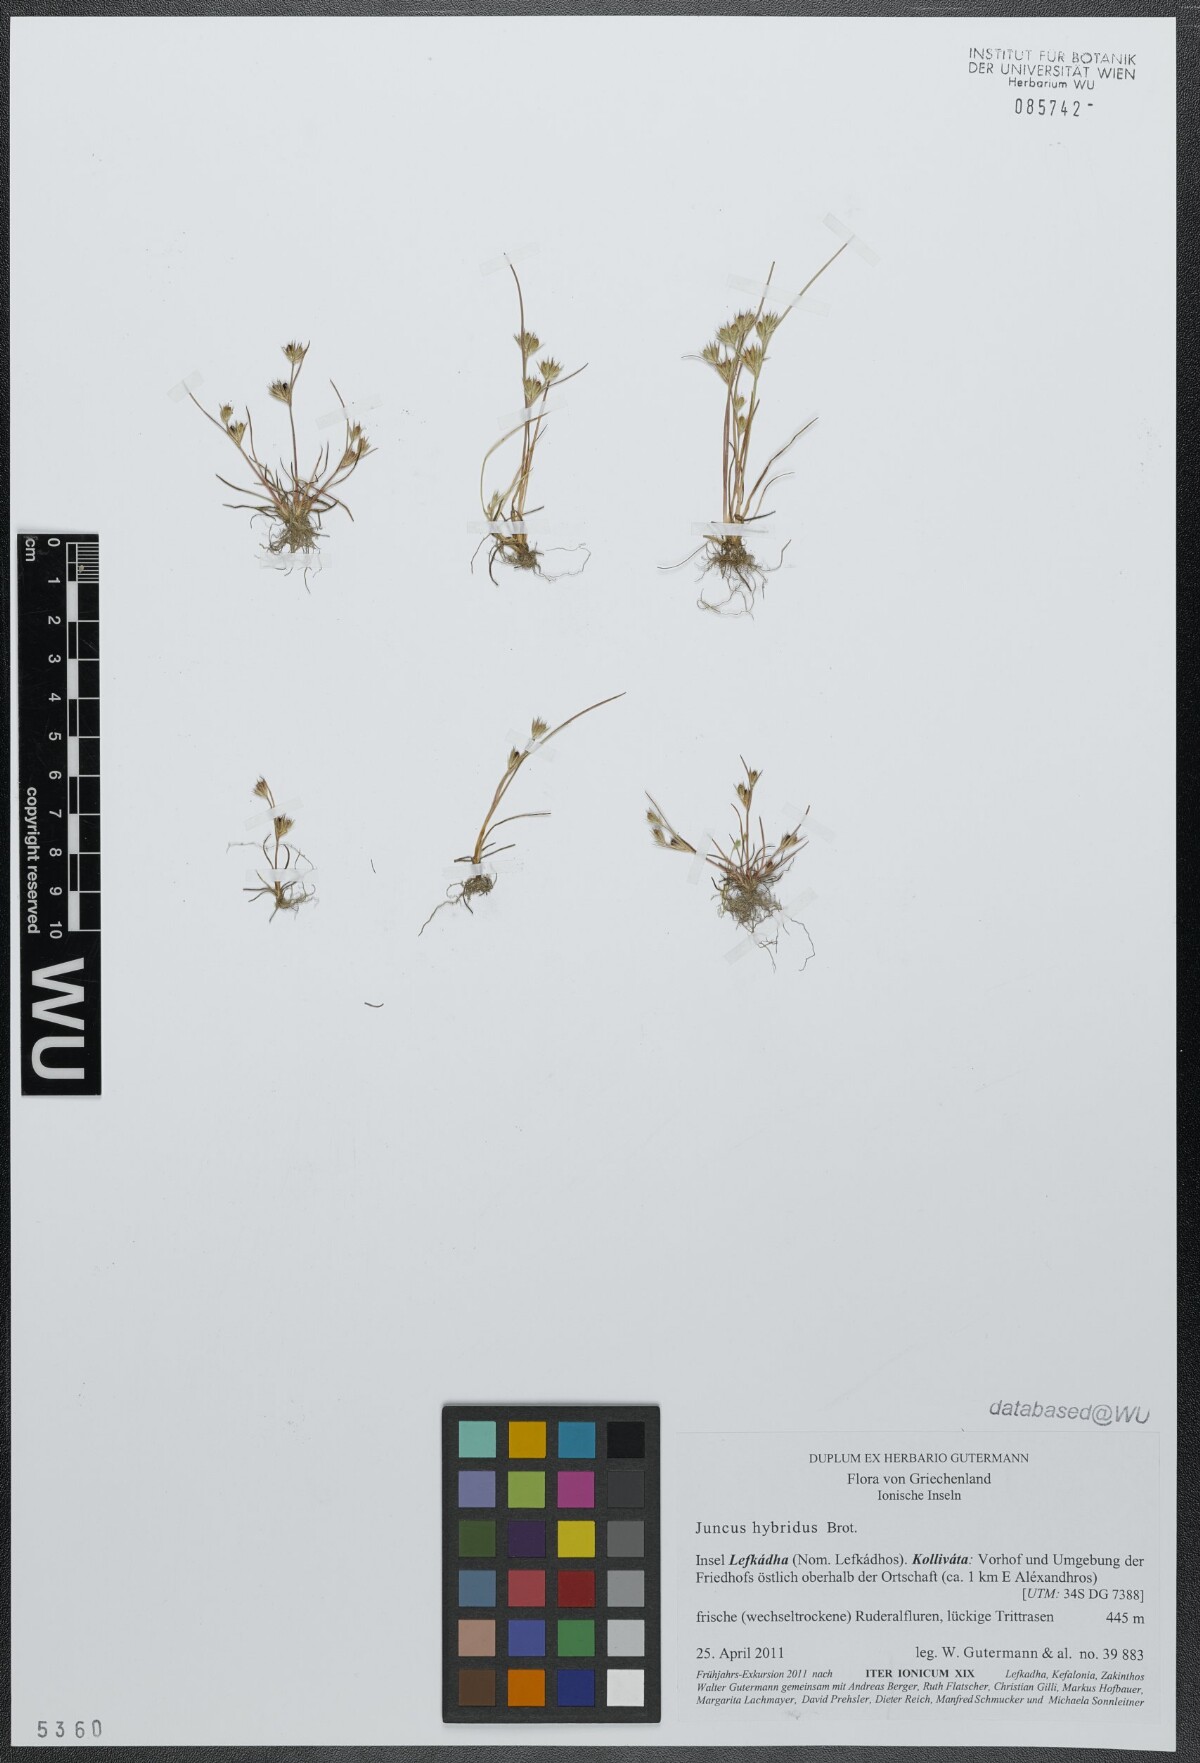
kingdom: Plantae
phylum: Tracheophyta
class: Liliopsida
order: Poales
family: Juncaceae
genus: Juncus
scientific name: Juncus hybridus
